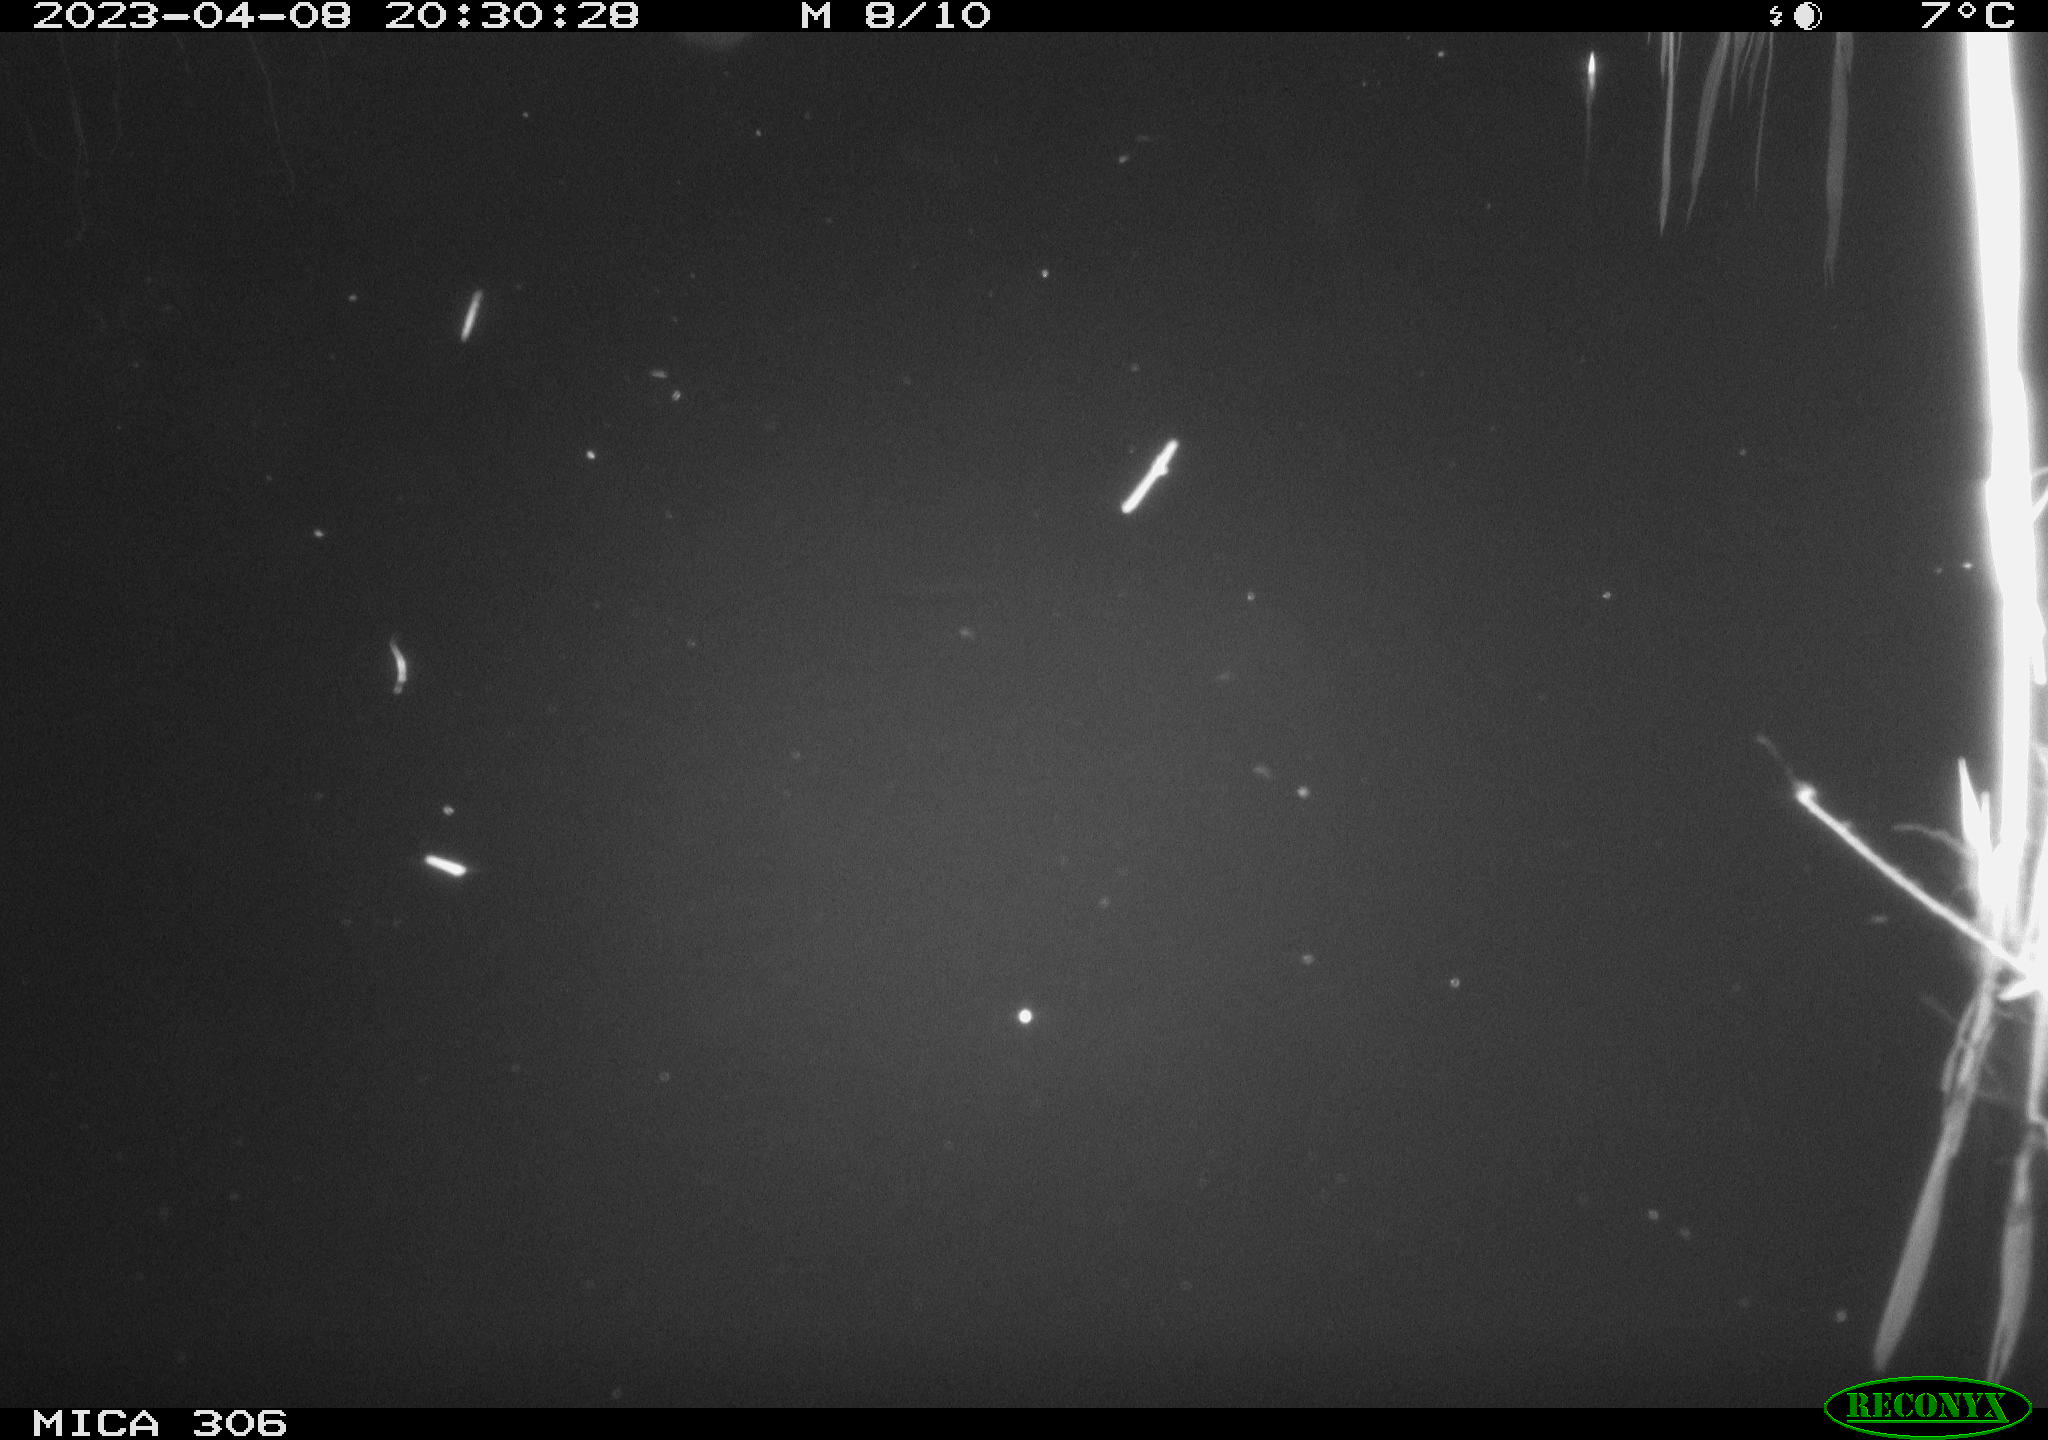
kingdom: Animalia
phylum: Chordata
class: Aves
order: Anseriformes
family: Anatidae
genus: Anas
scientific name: Anas
